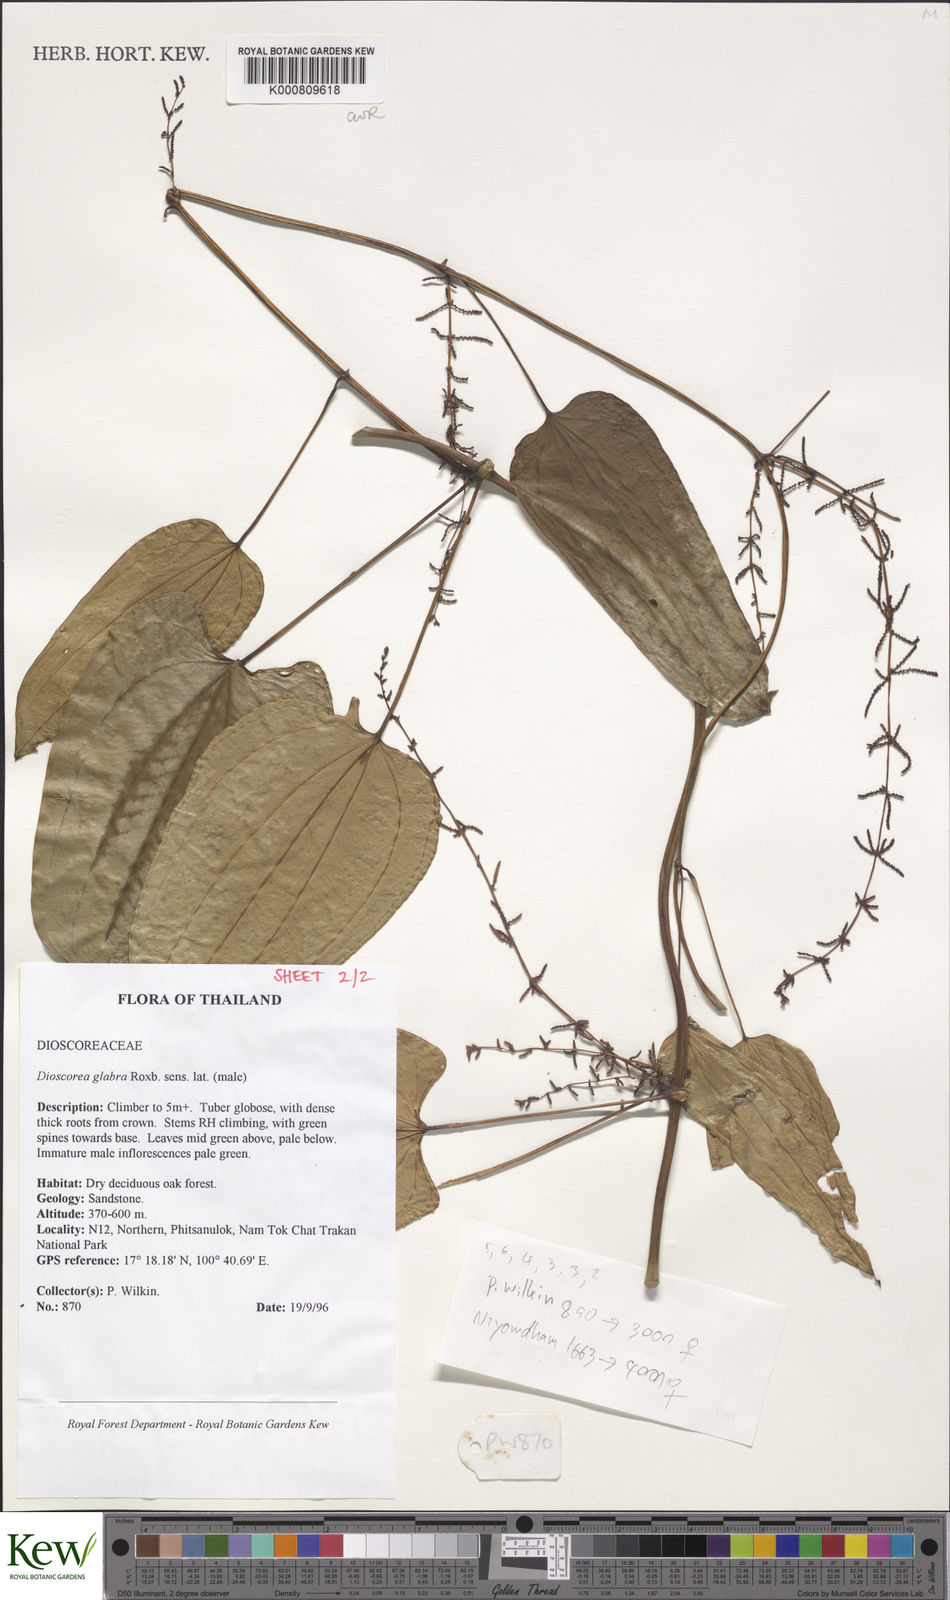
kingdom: Plantae
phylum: Tracheophyta
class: Liliopsida
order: Dioscoreales
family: Dioscoreaceae
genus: Dioscorea
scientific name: Dioscorea glabra
